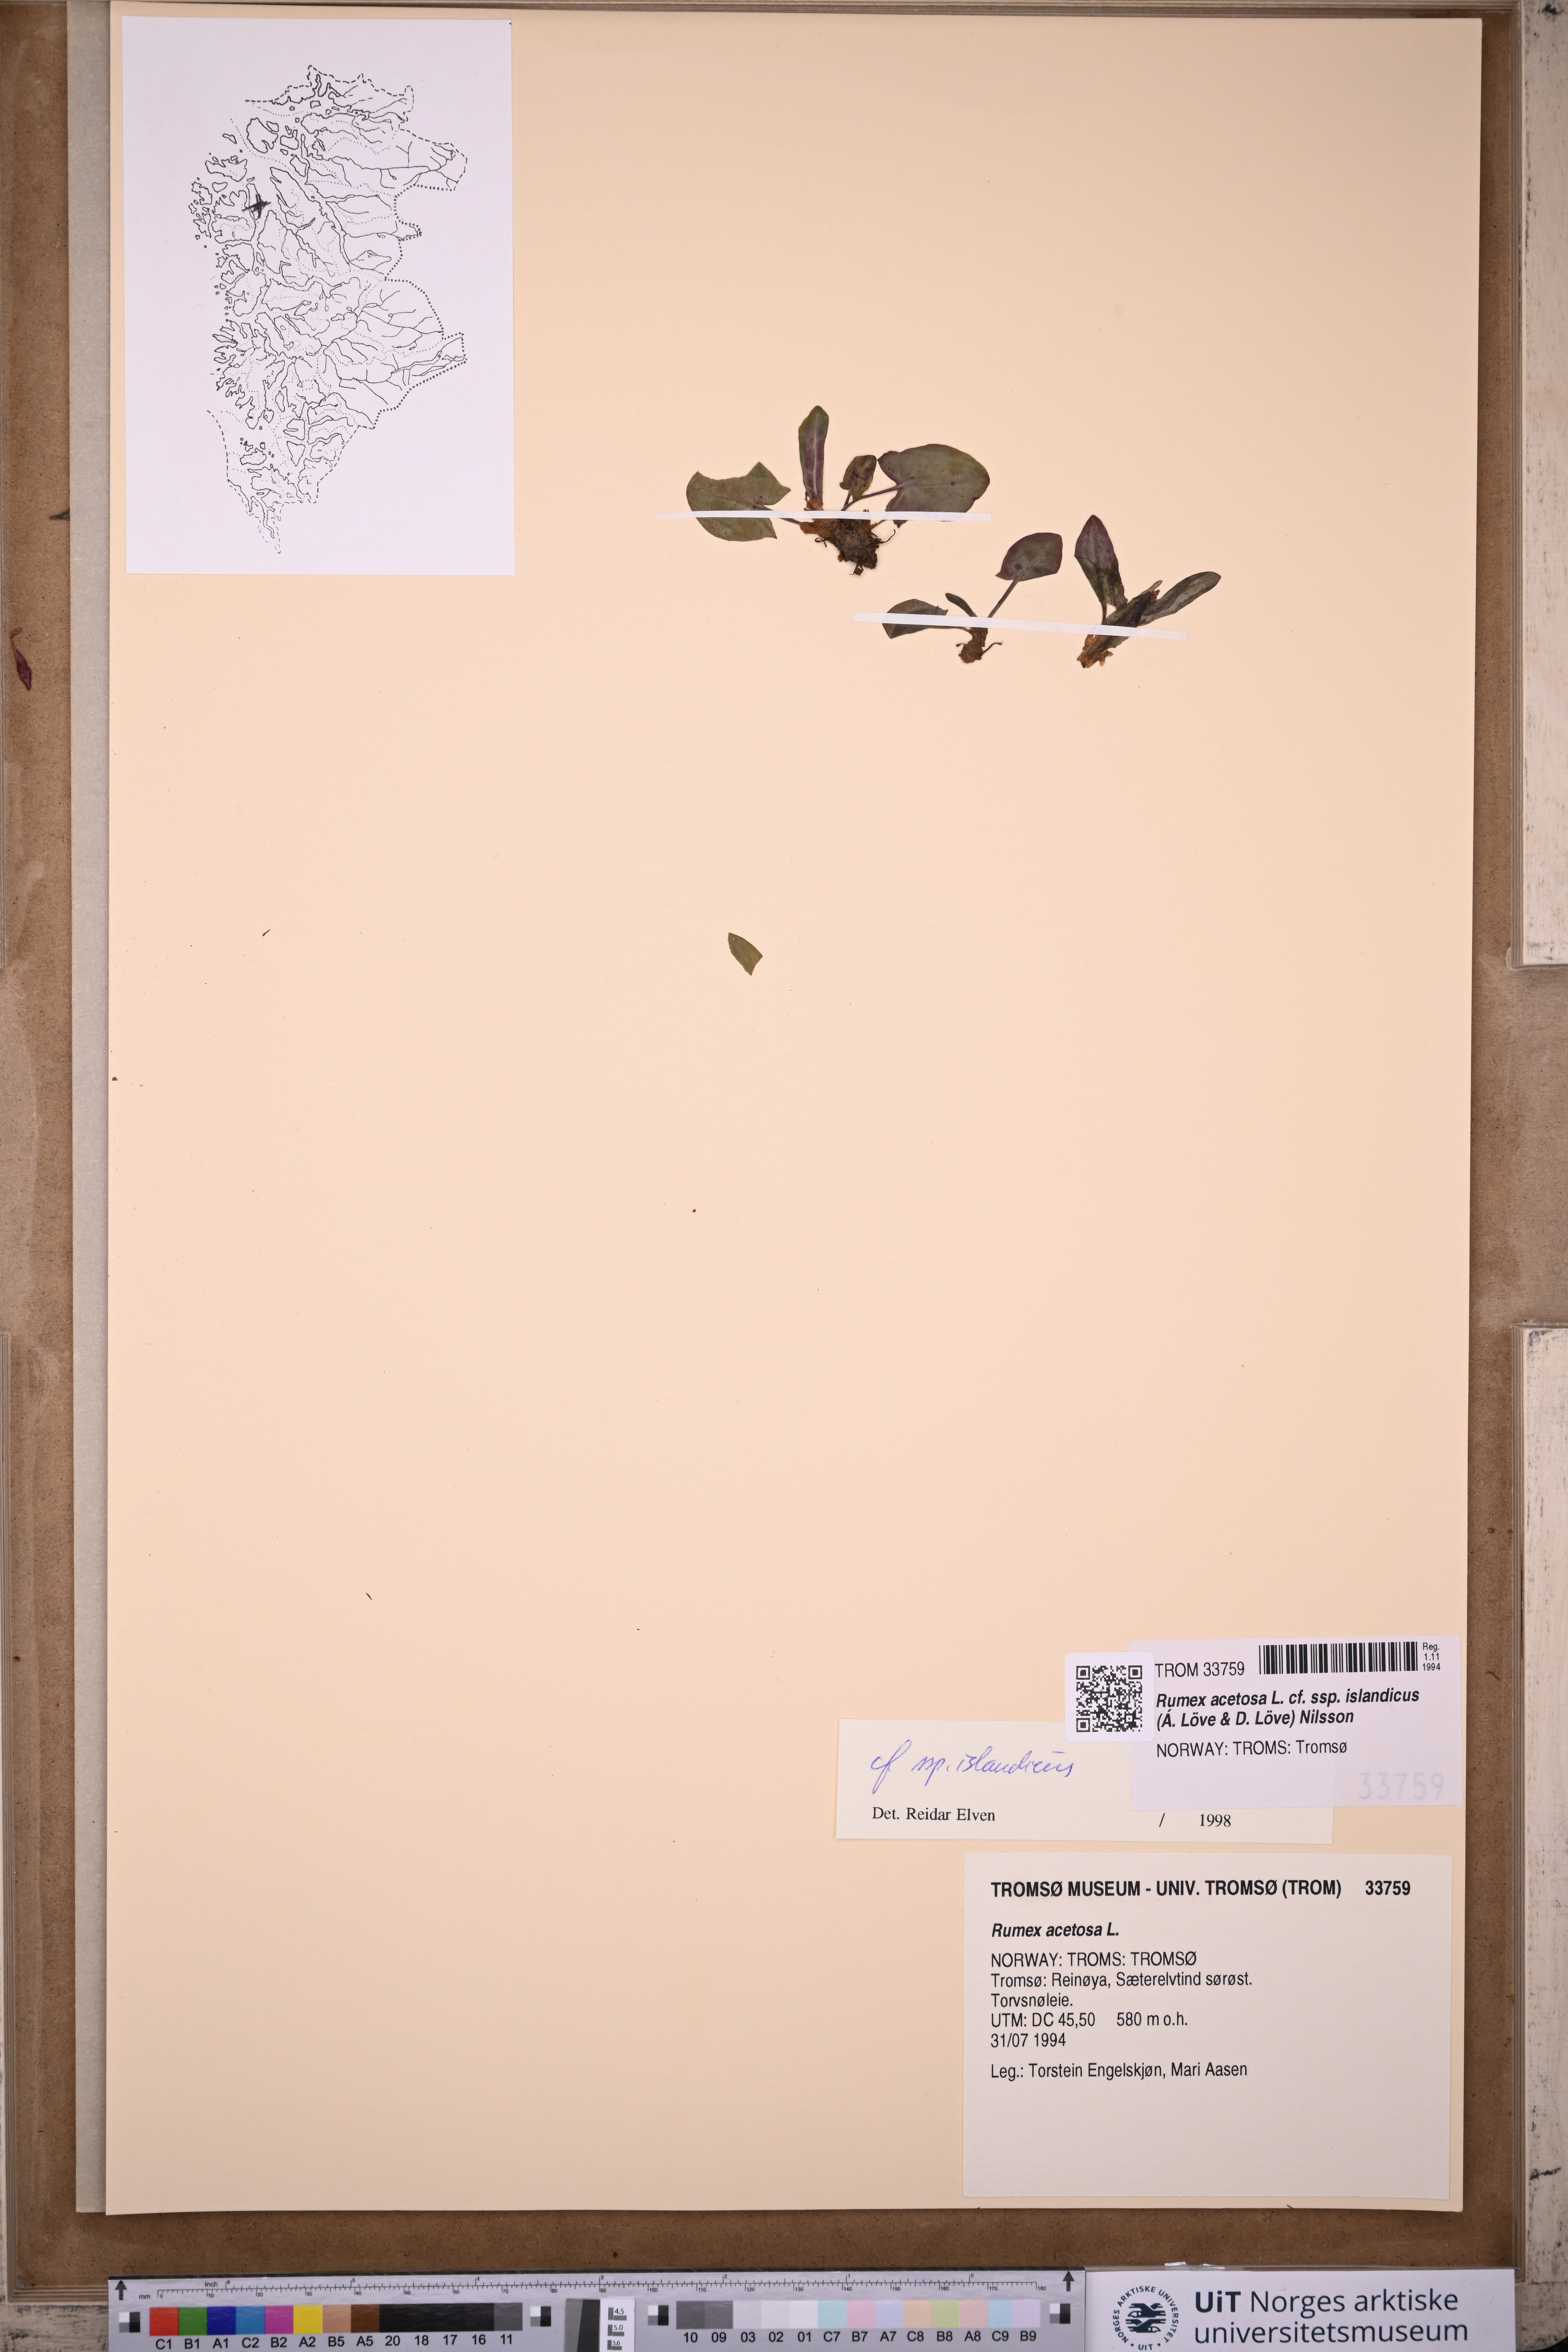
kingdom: Plantae
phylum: Tracheophyta
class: Magnoliopsida
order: Caryophyllales
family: Polygonaceae
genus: Rumex
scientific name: Rumex acetosa
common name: Garden sorrel
